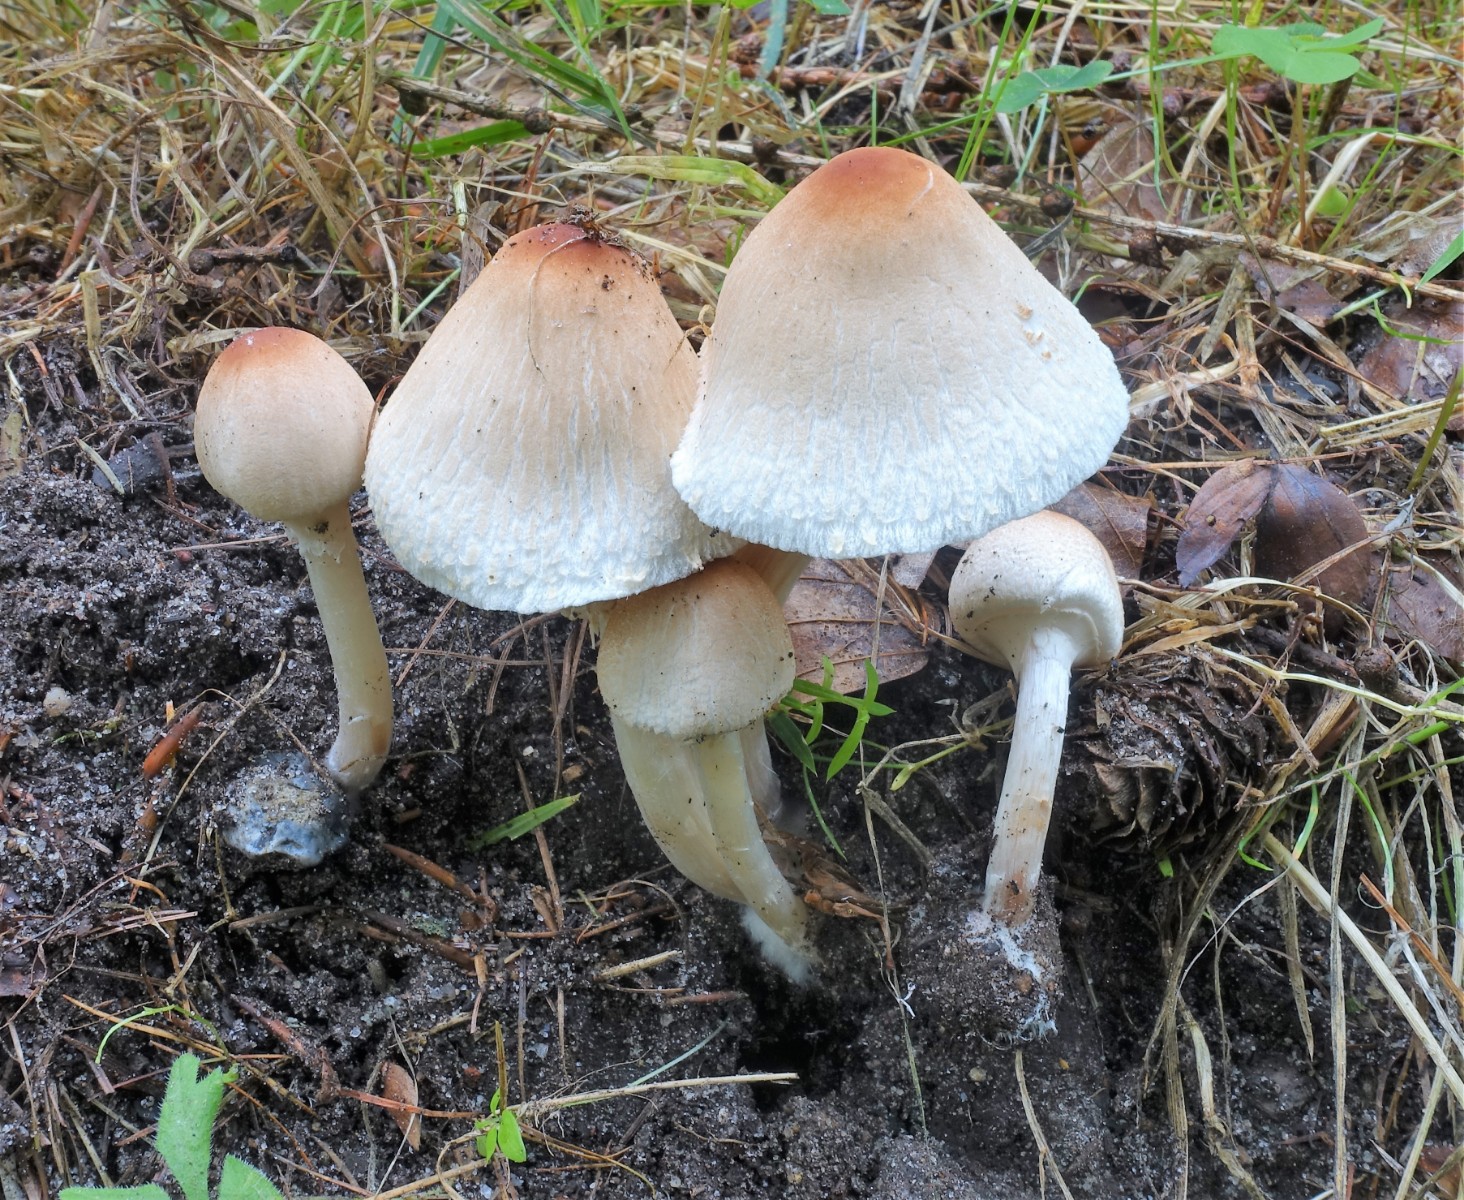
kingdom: Fungi
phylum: Basidiomycota
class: Agaricomycetes
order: Agaricales
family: Agaricaceae
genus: Lepiota
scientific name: Lepiota cristata
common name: stinkende parasolhat
